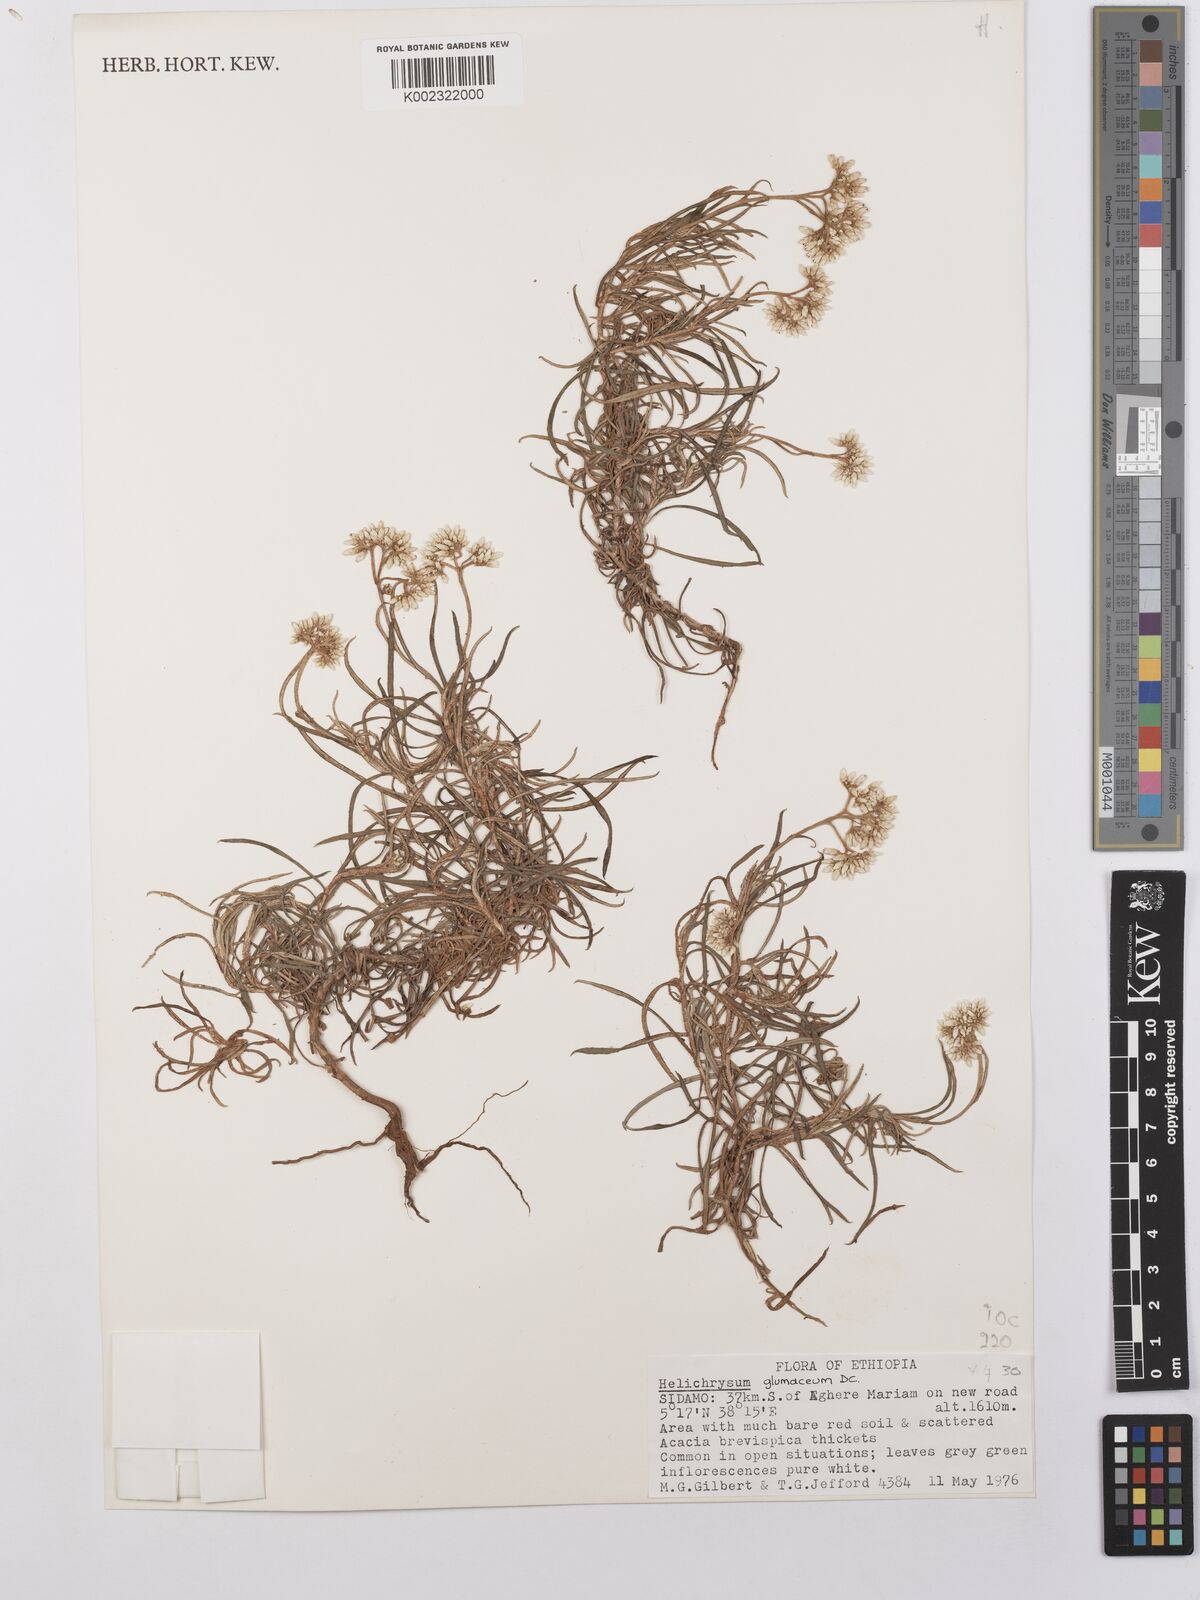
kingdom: Plantae
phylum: Tracheophyta
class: Magnoliopsida
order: Asterales
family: Asteraceae
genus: Helichrysum
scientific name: Helichrysum glumaceum
